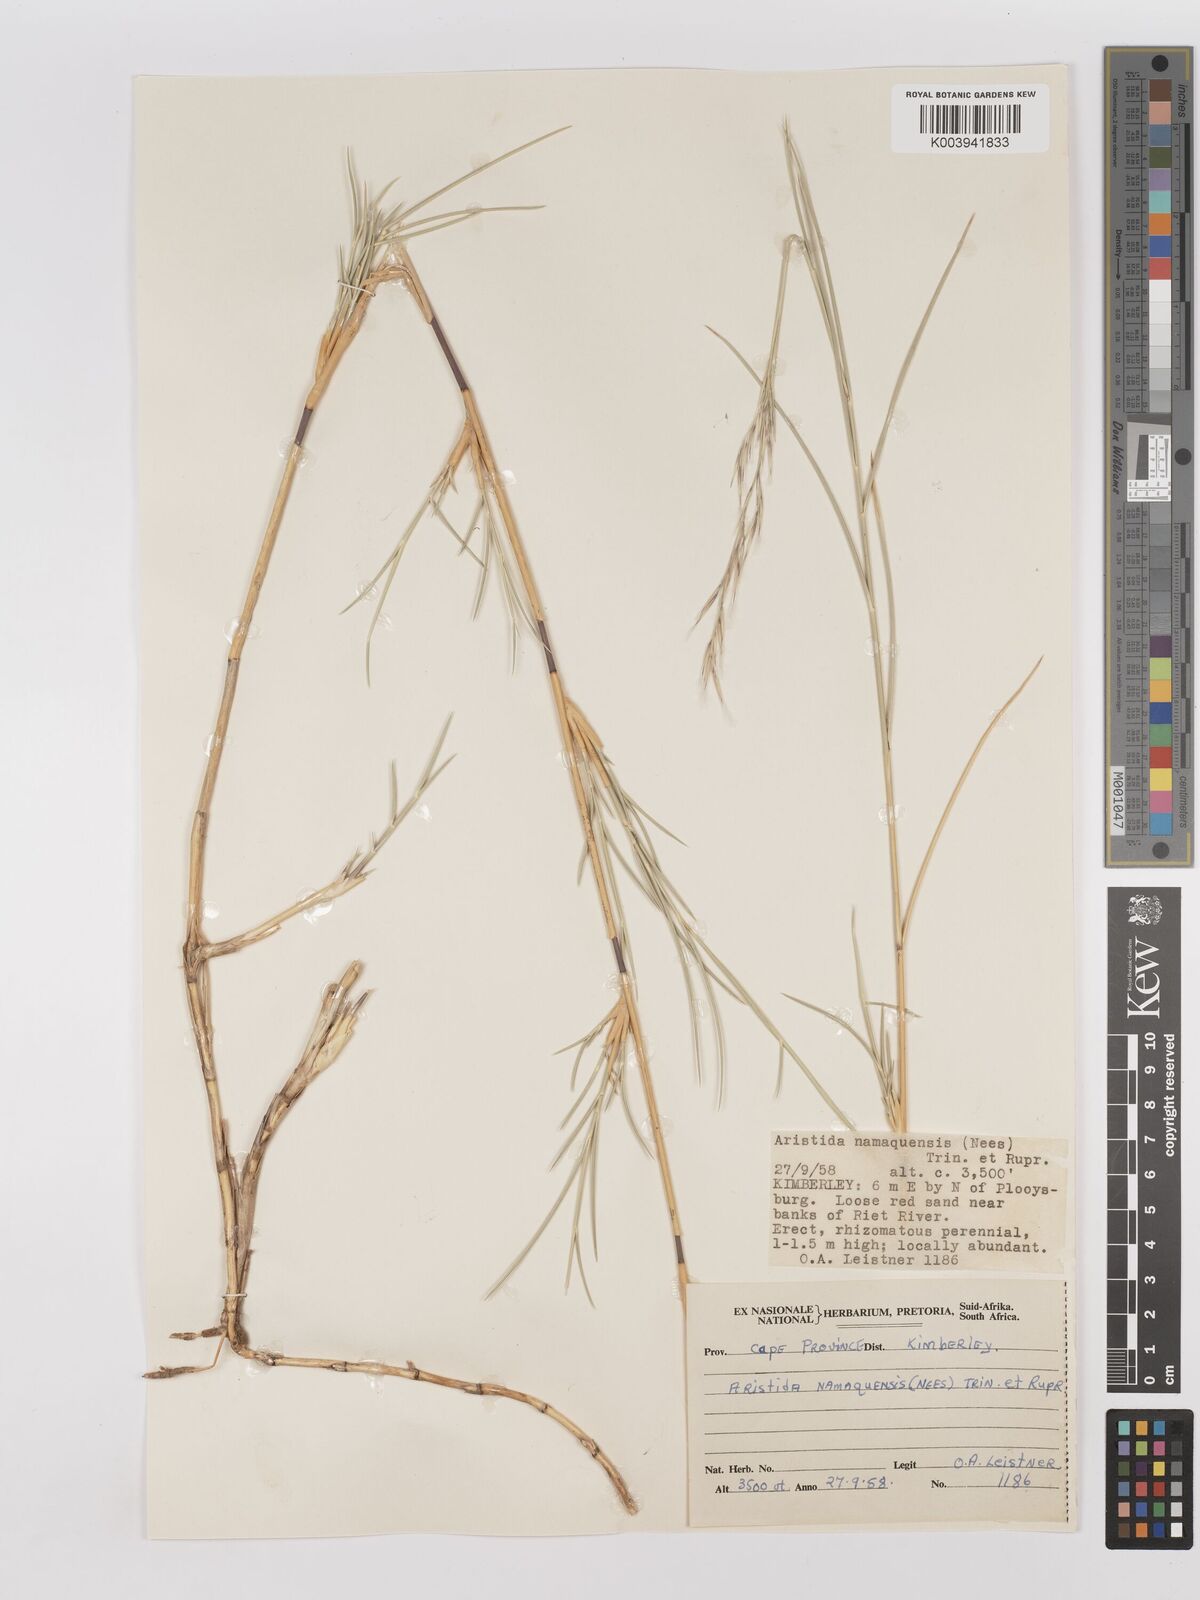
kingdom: Plantae
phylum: Tracheophyta
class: Liliopsida
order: Poales
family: Poaceae
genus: Stipagrostis
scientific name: Stipagrostis namaquensis
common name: River bushman grass
